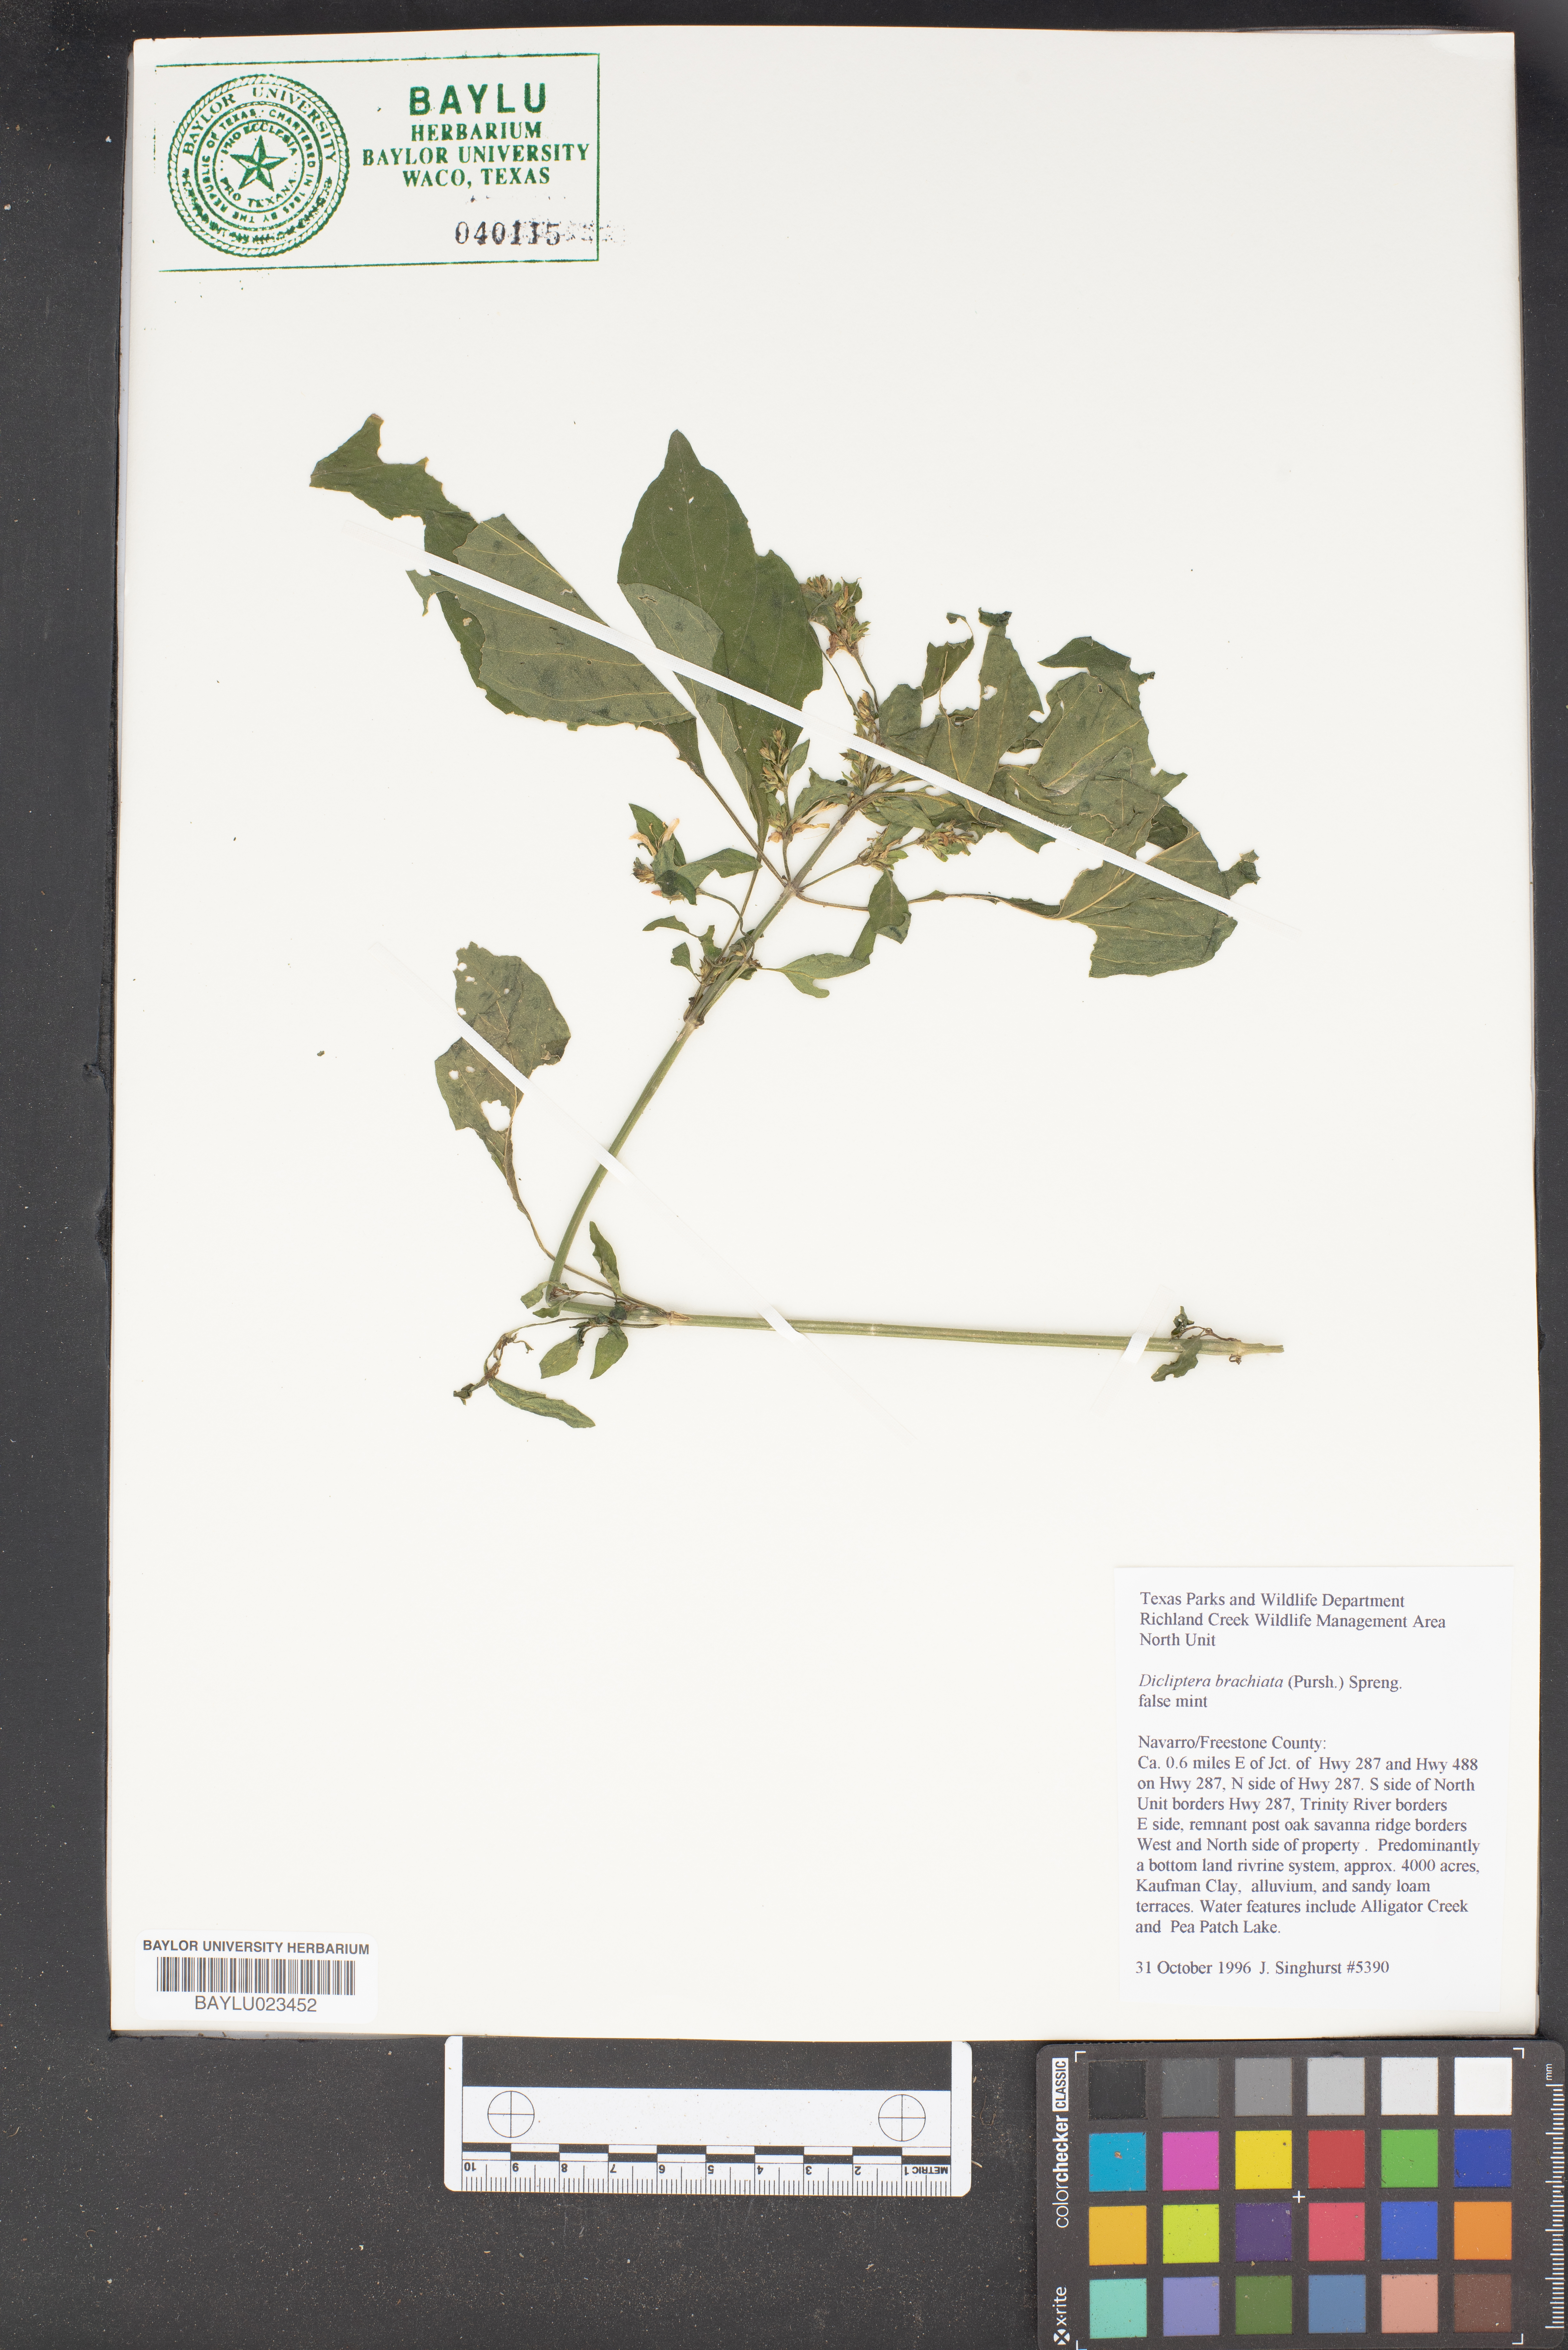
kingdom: Plantae
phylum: Tracheophyta
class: Magnoliopsida
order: Lamiales
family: Acanthaceae
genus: Dicliptera
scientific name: Dicliptera brachiata
